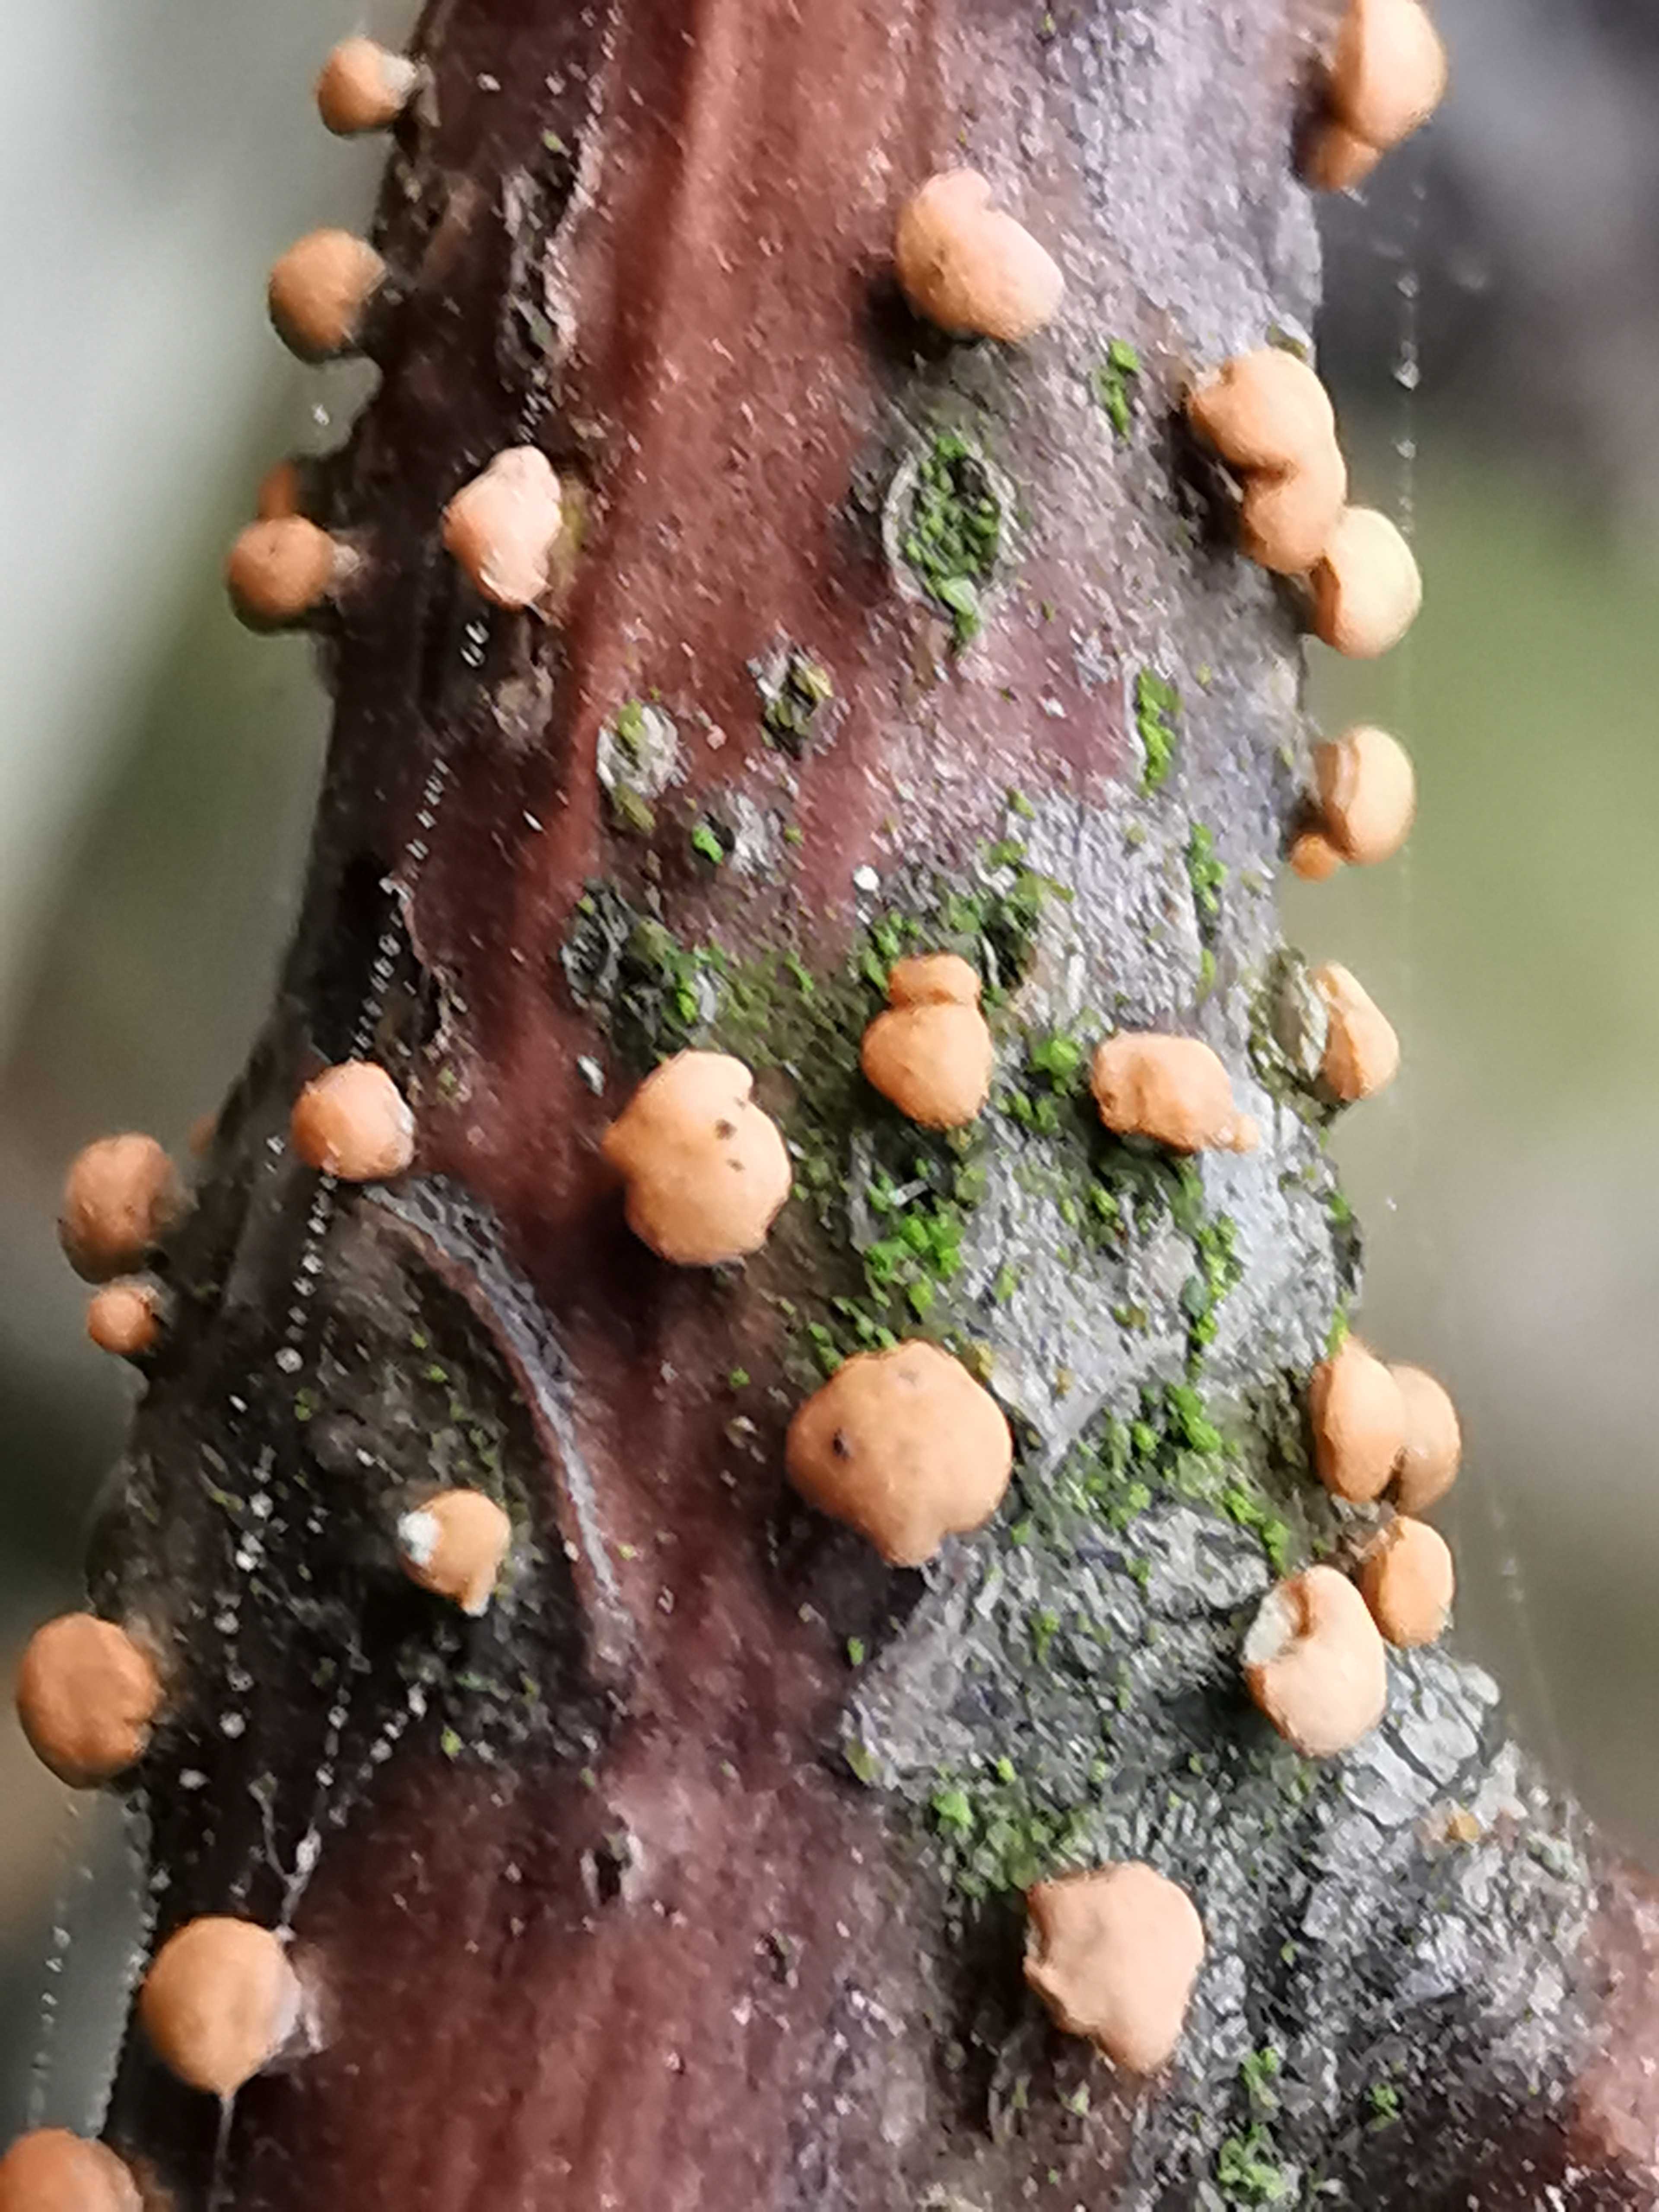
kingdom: Fungi
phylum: Ascomycota
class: Sordariomycetes
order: Hypocreales
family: Nectriaceae
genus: Nectria
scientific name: Nectria cinnabarina
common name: almindelig cinnobersvamp
